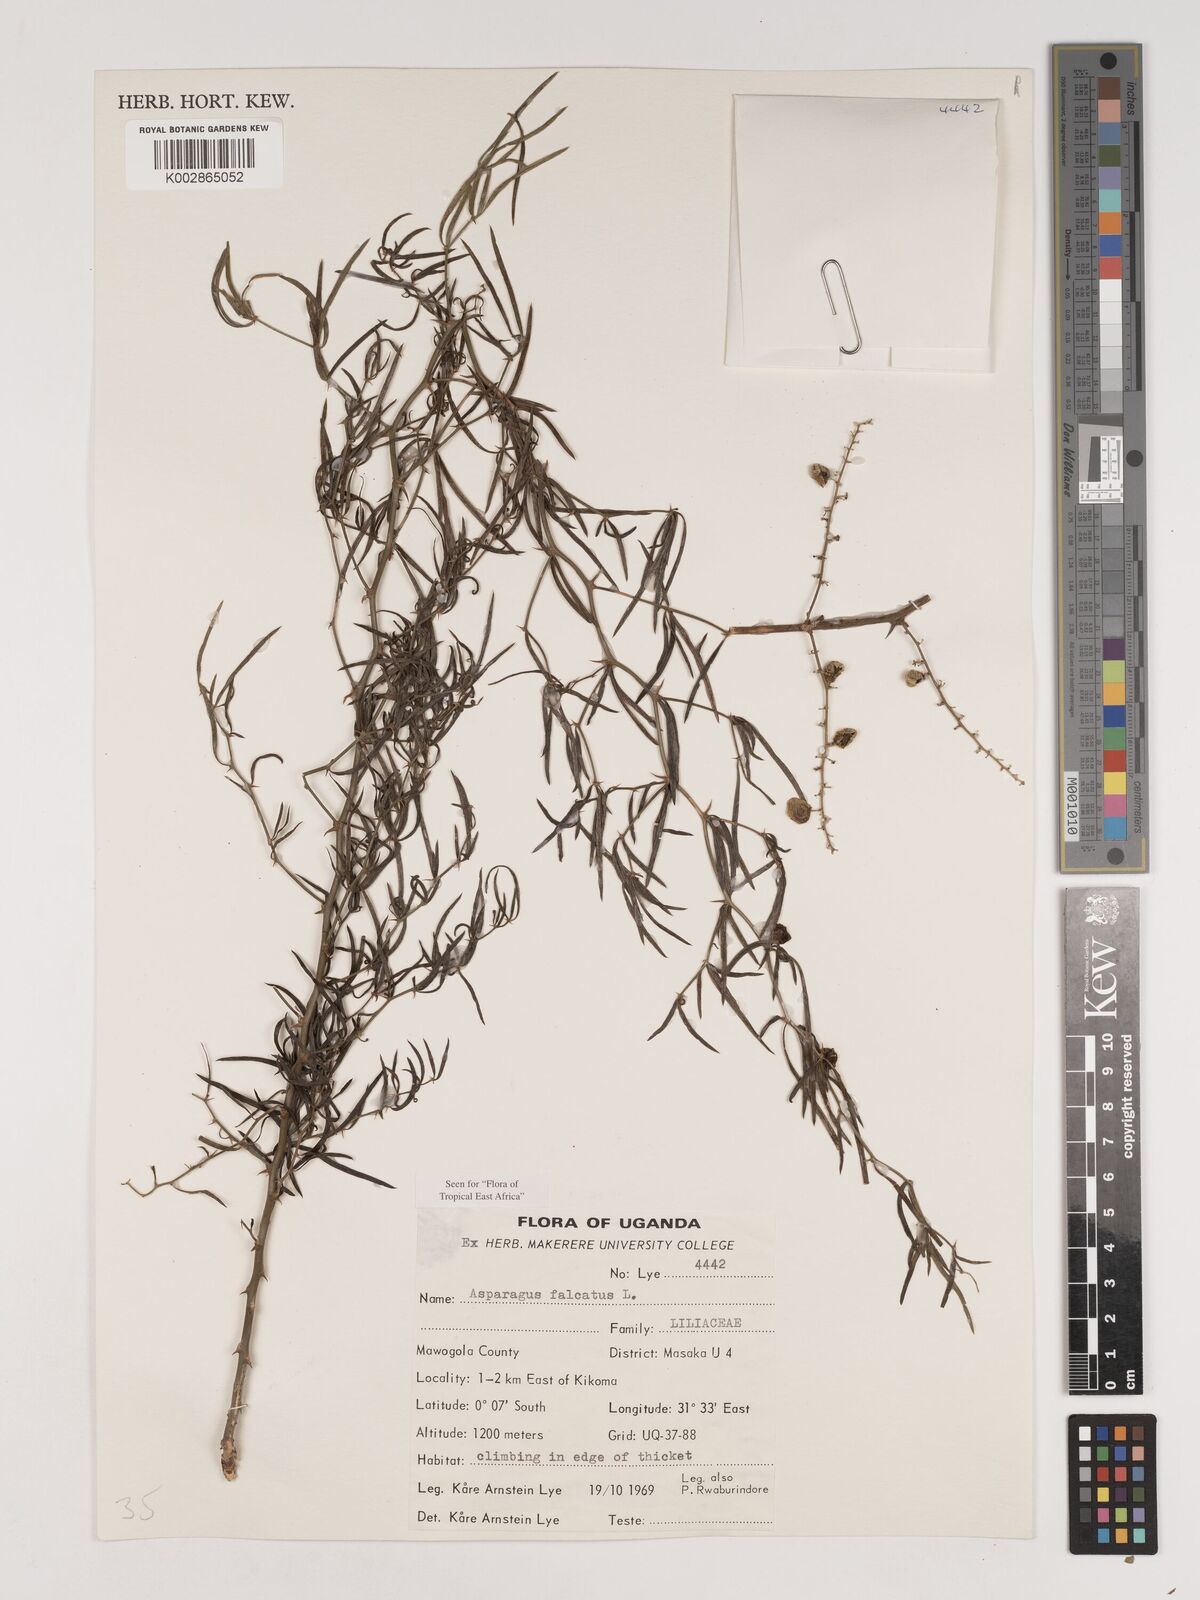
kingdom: Plantae
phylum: Tracheophyta
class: Liliopsida
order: Asparagales
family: Asparagaceae
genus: Asparagus
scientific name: Asparagus falcatus
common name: Asparagus
